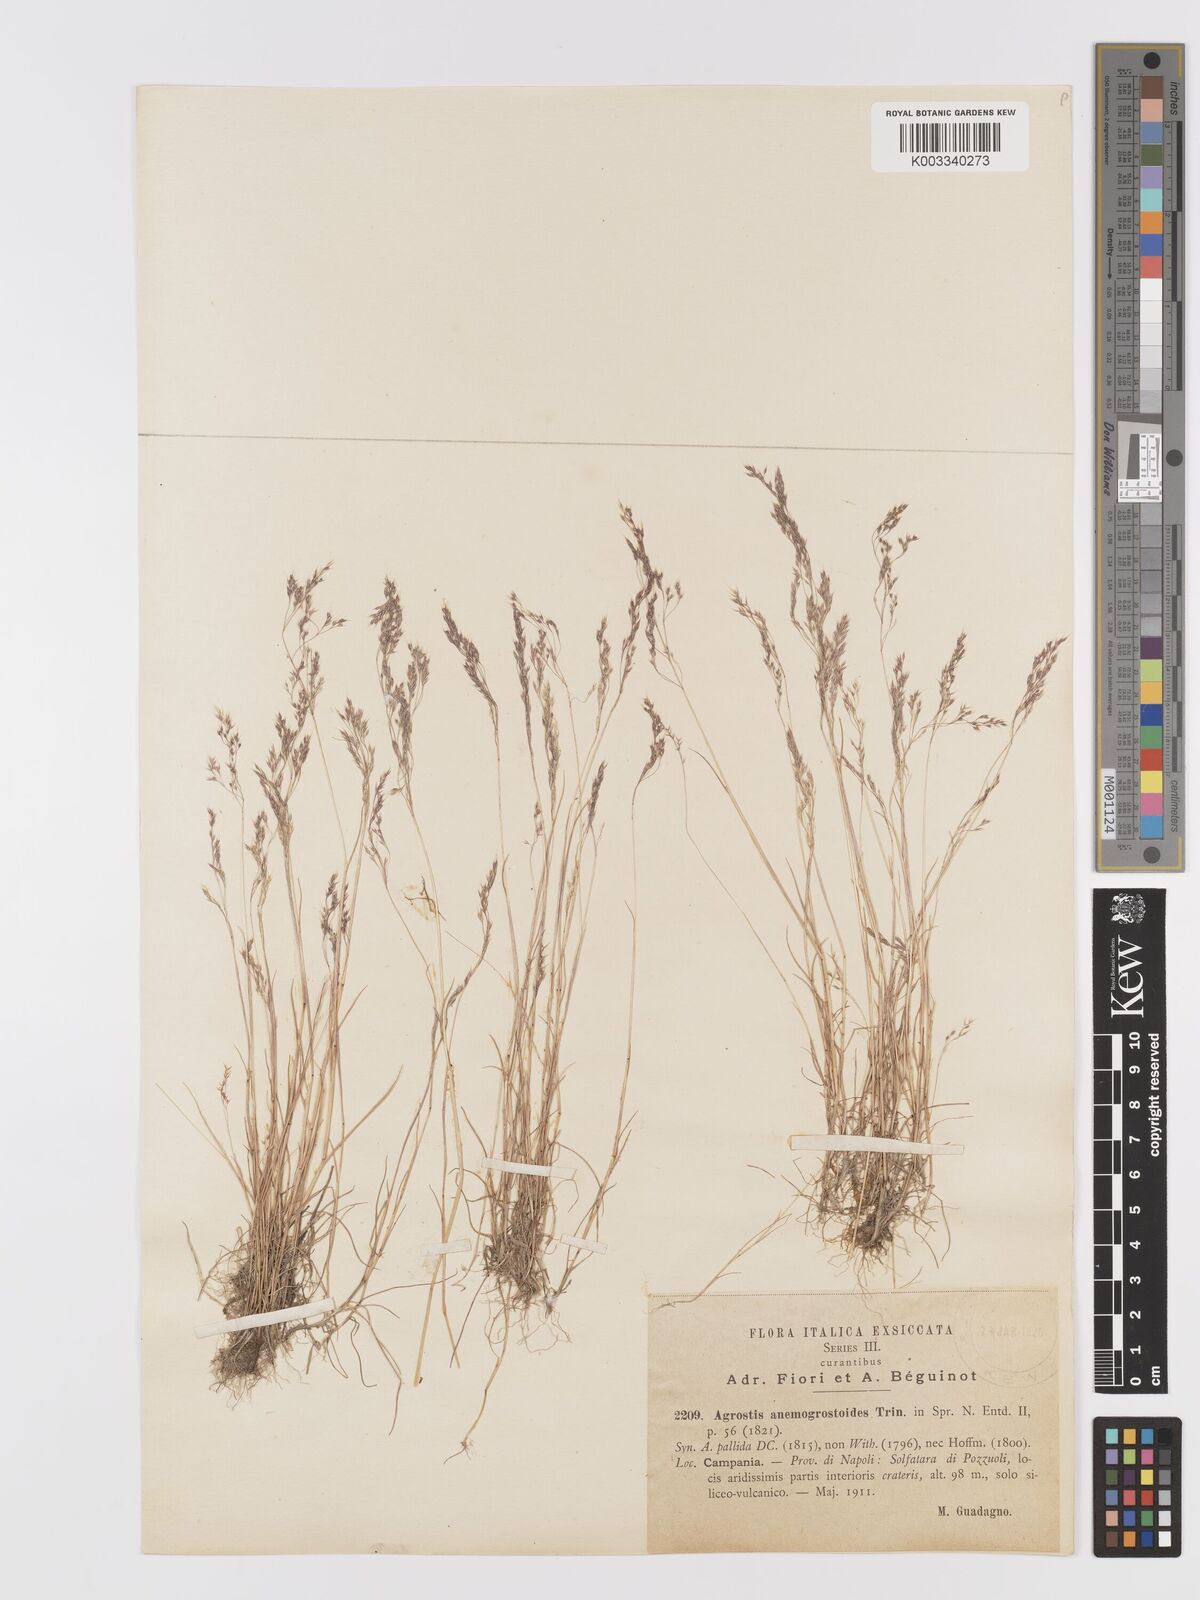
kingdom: Plantae
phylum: Tracheophyta
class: Liliopsida
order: Poales
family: Poaceae
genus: Agrostis
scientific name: Agrostis pourretii
